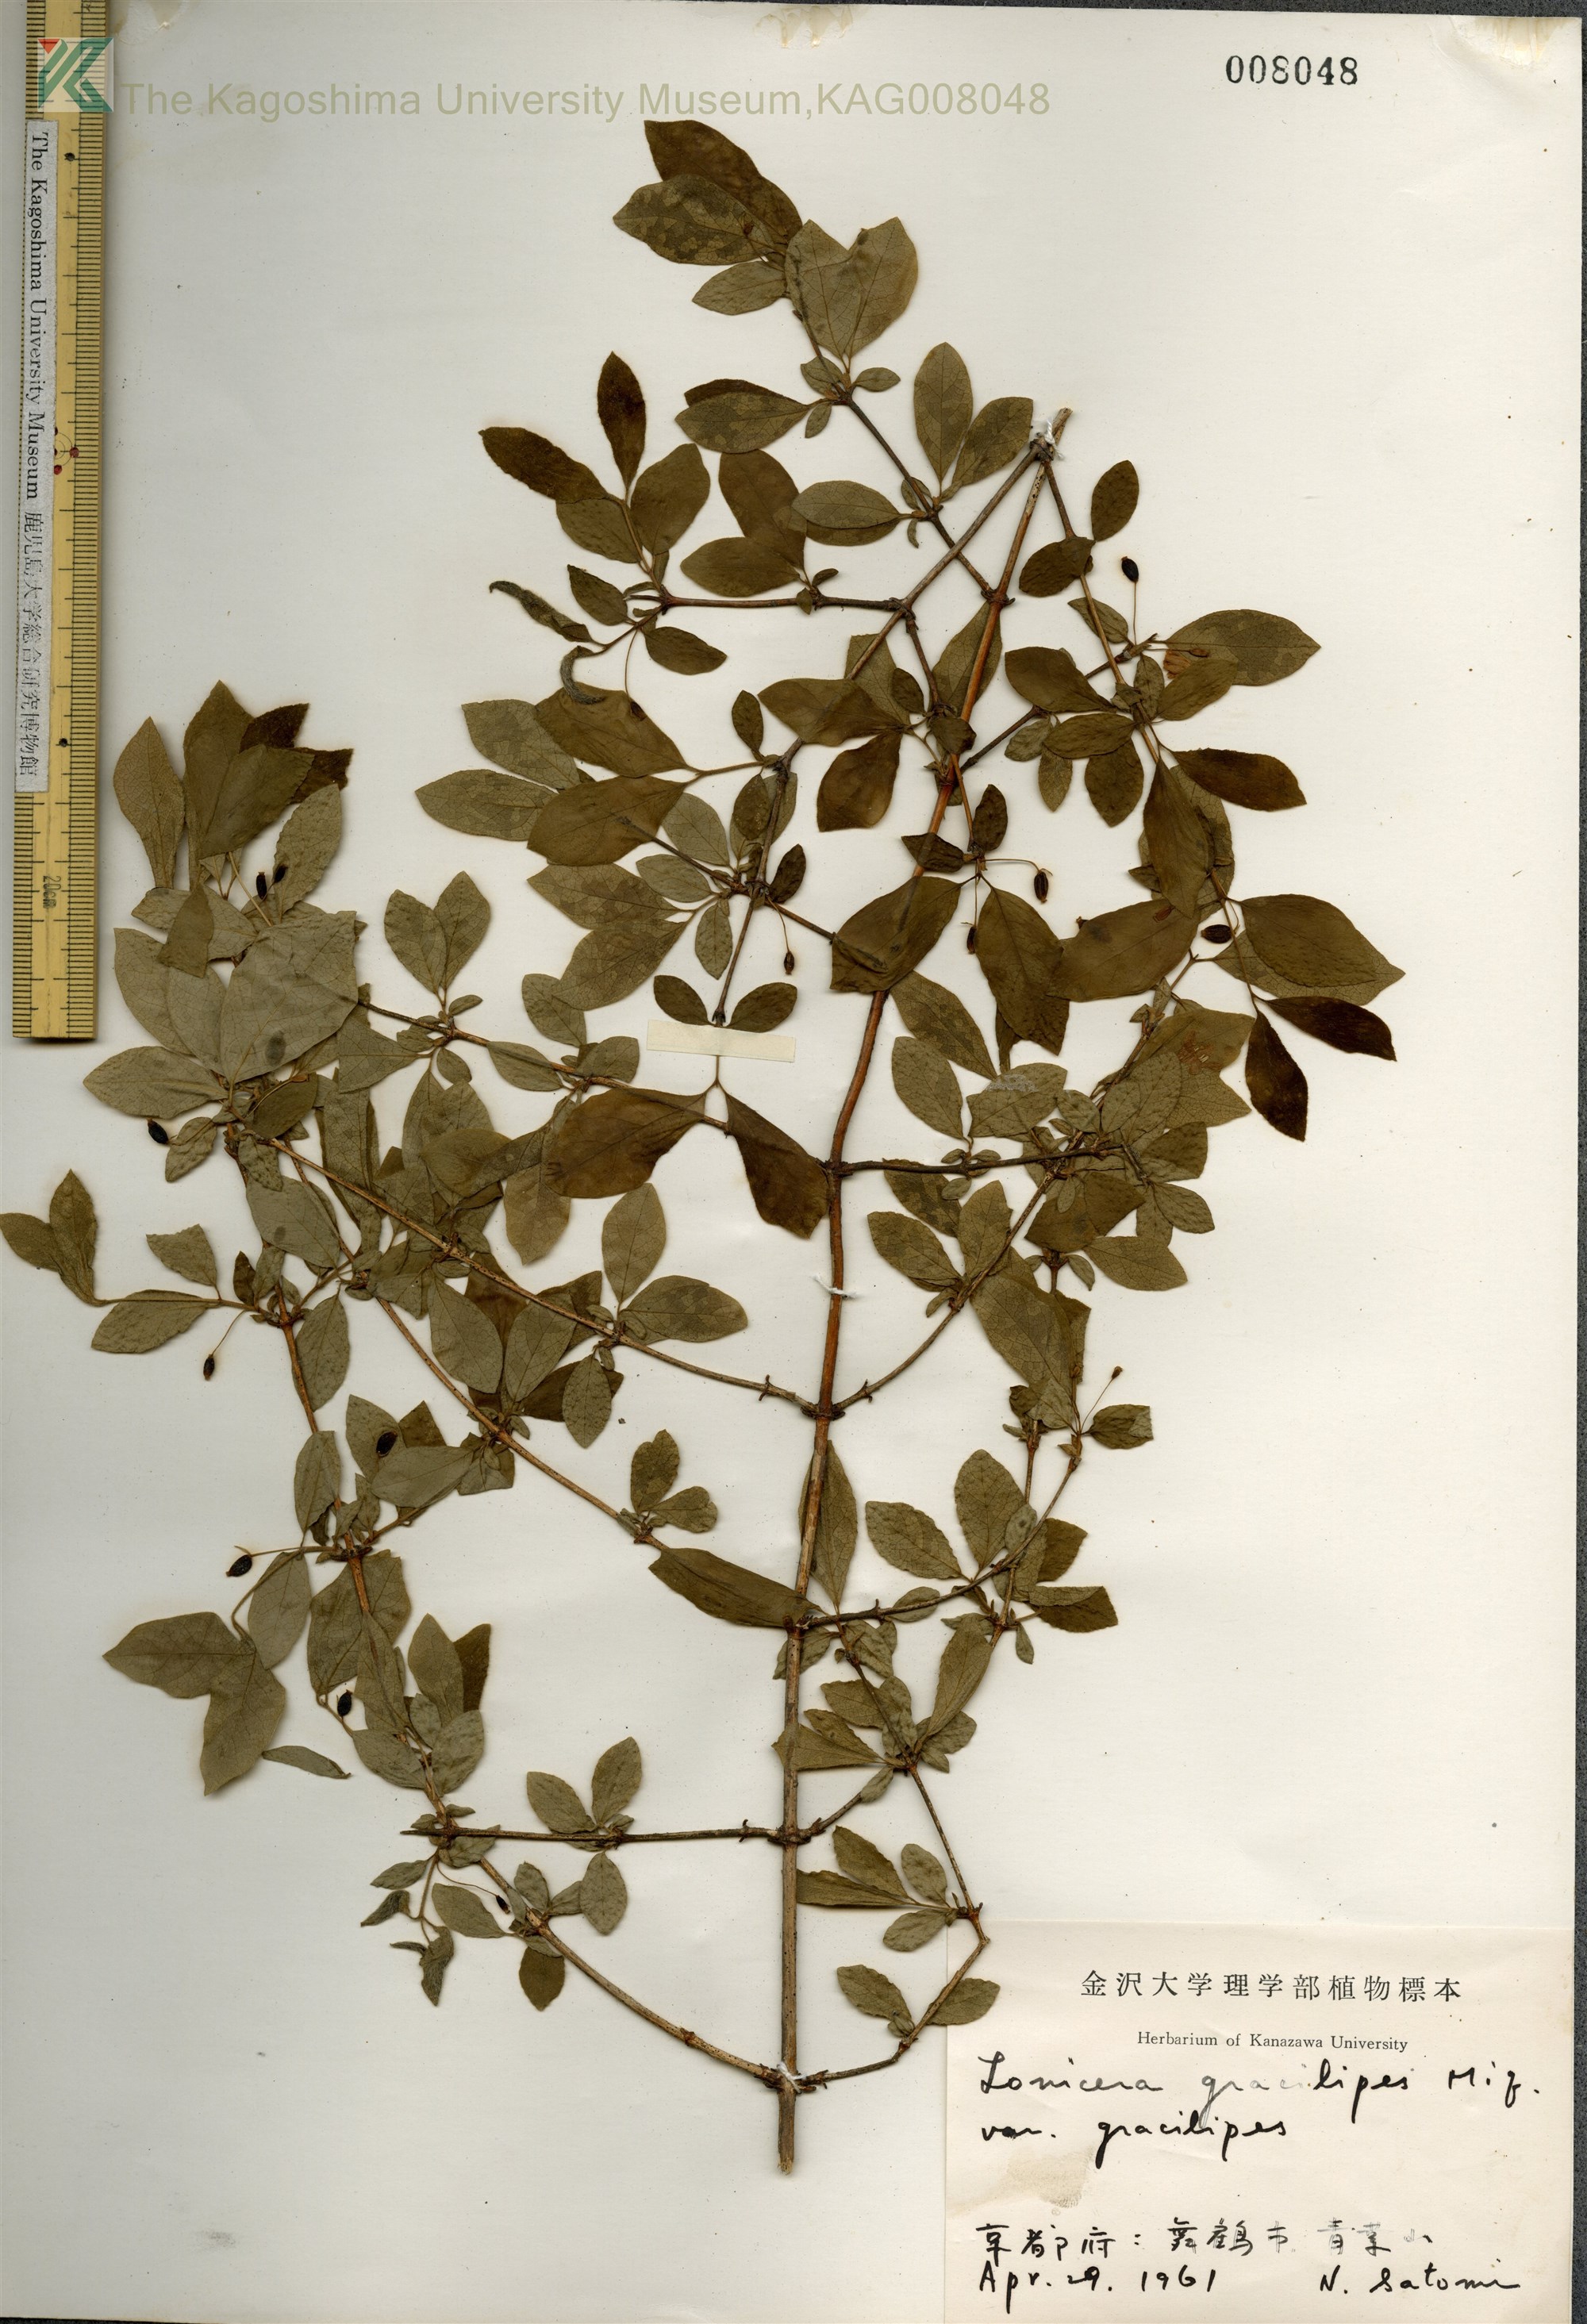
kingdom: Plantae
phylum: Tracheophyta
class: Magnoliopsida
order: Dipsacales
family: Caprifoliaceae
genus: Lonicera
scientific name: Lonicera gracilipes
